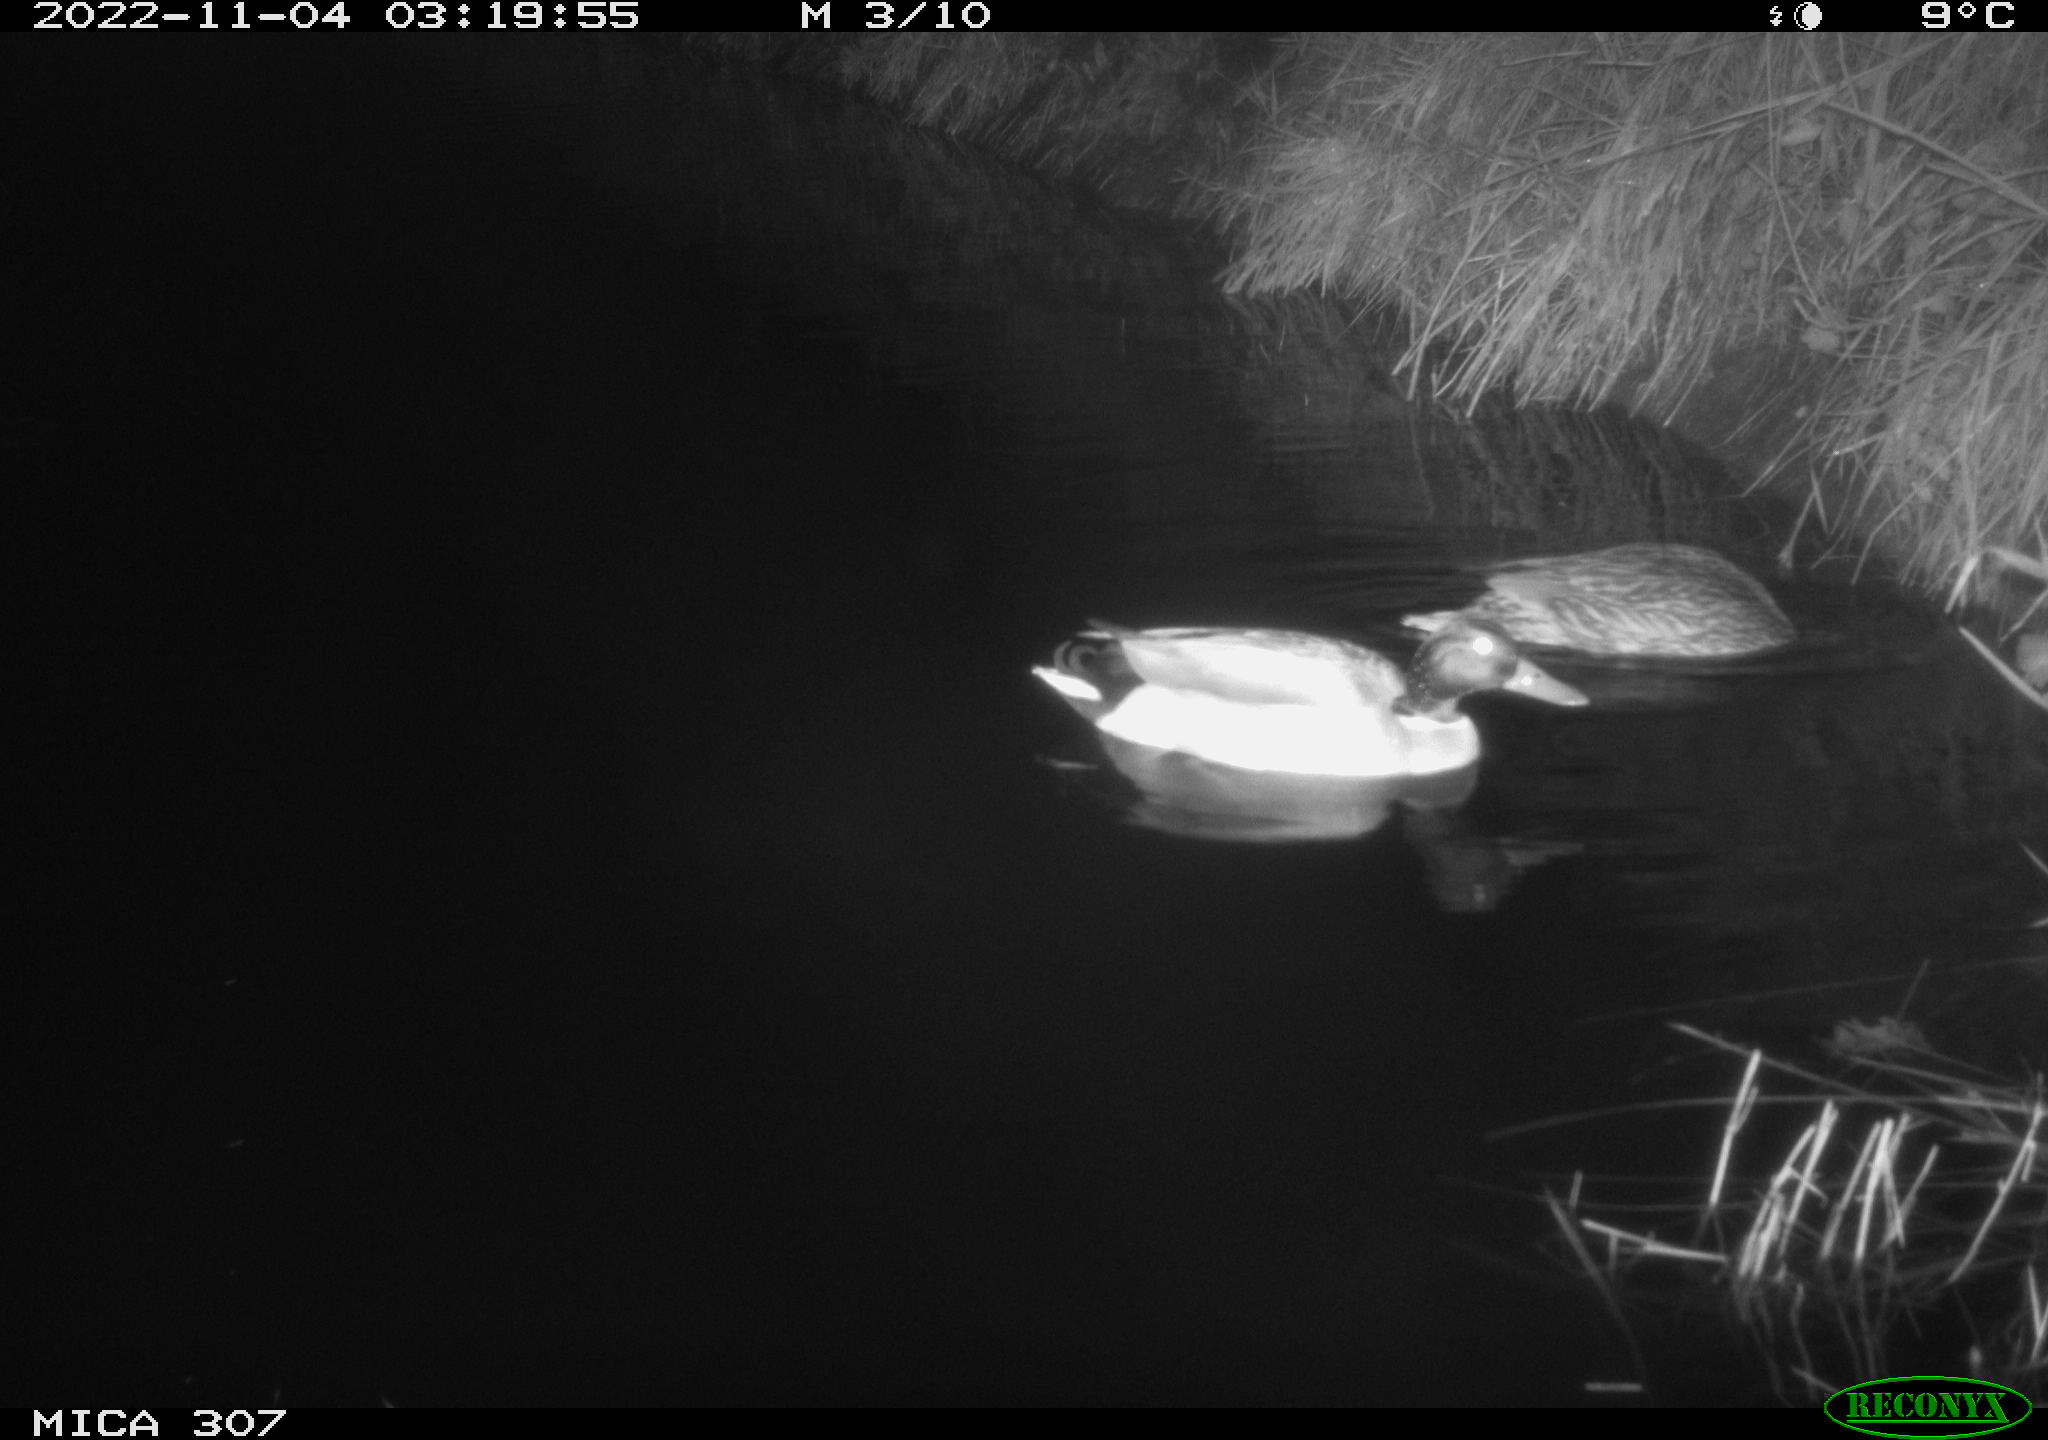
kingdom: Animalia
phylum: Chordata
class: Aves
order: Anseriformes
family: Anatidae
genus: Anas
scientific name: Anas
